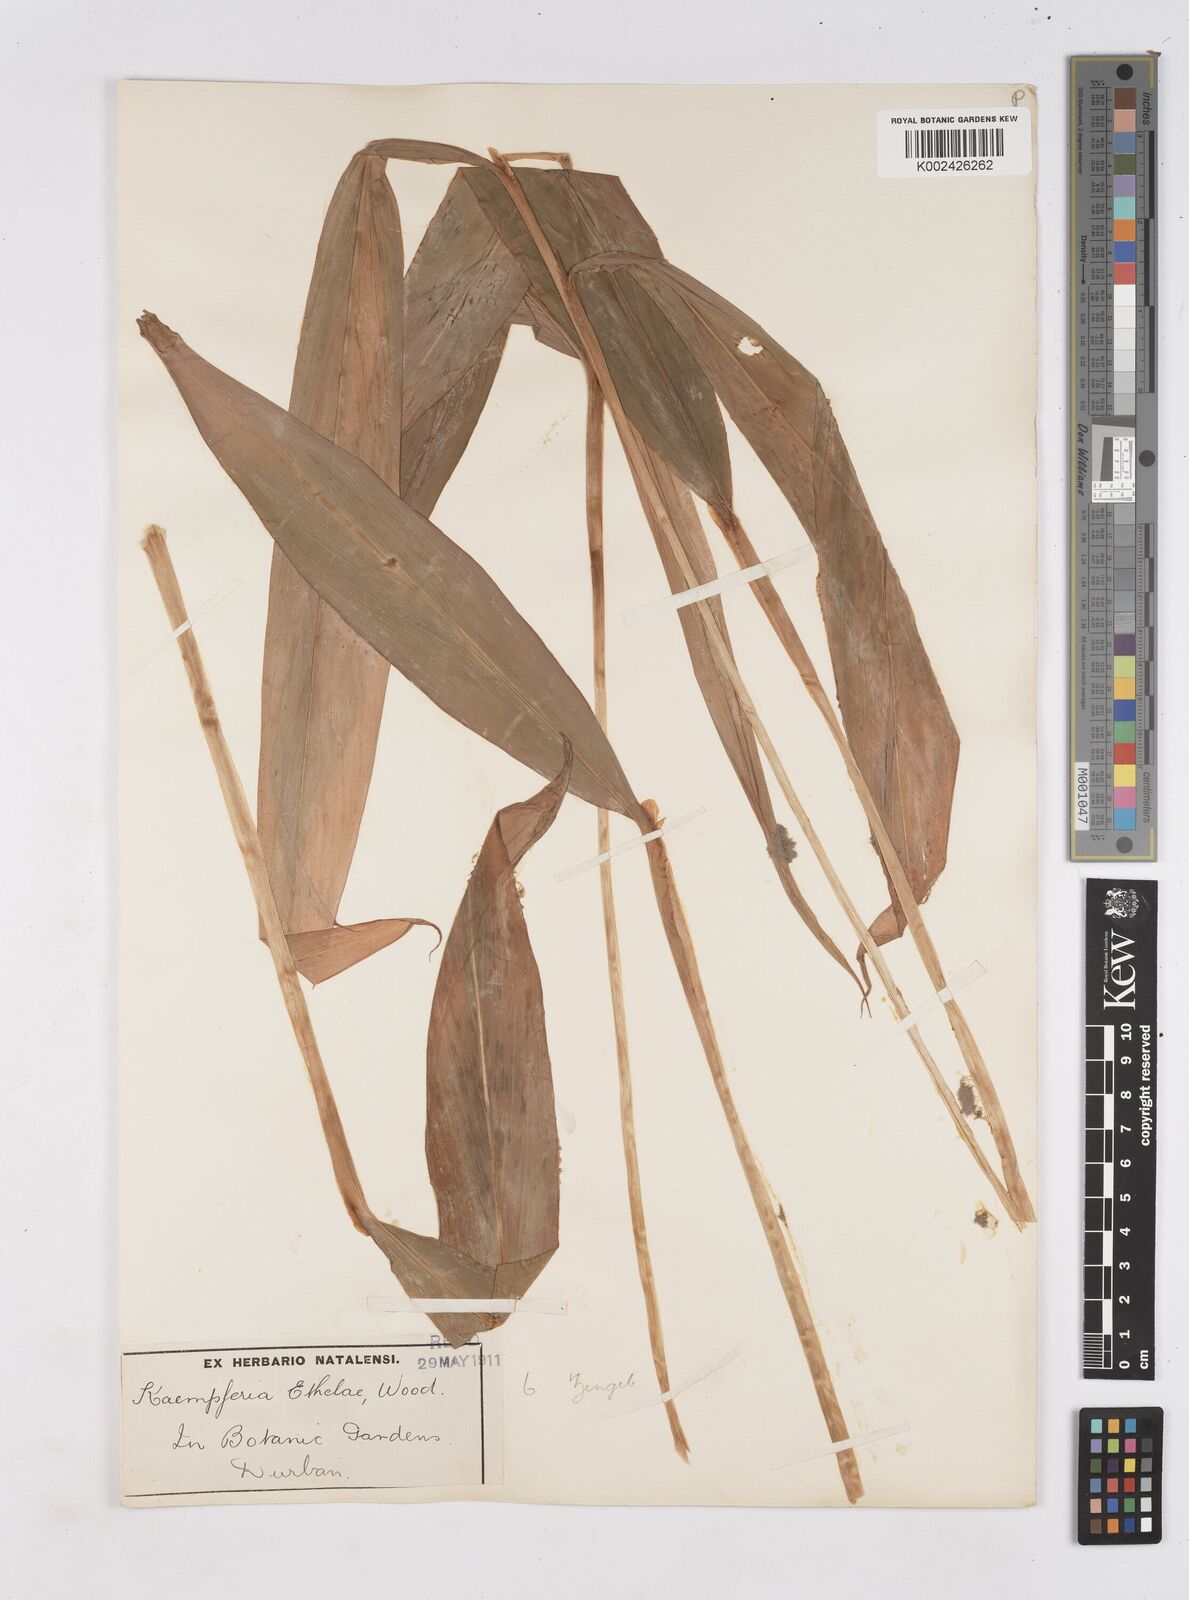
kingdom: Plantae
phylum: Tracheophyta
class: Liliopsida
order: Zingiberales
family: Zingiberaceae
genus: Siphonochilus
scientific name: Siphonochilus
